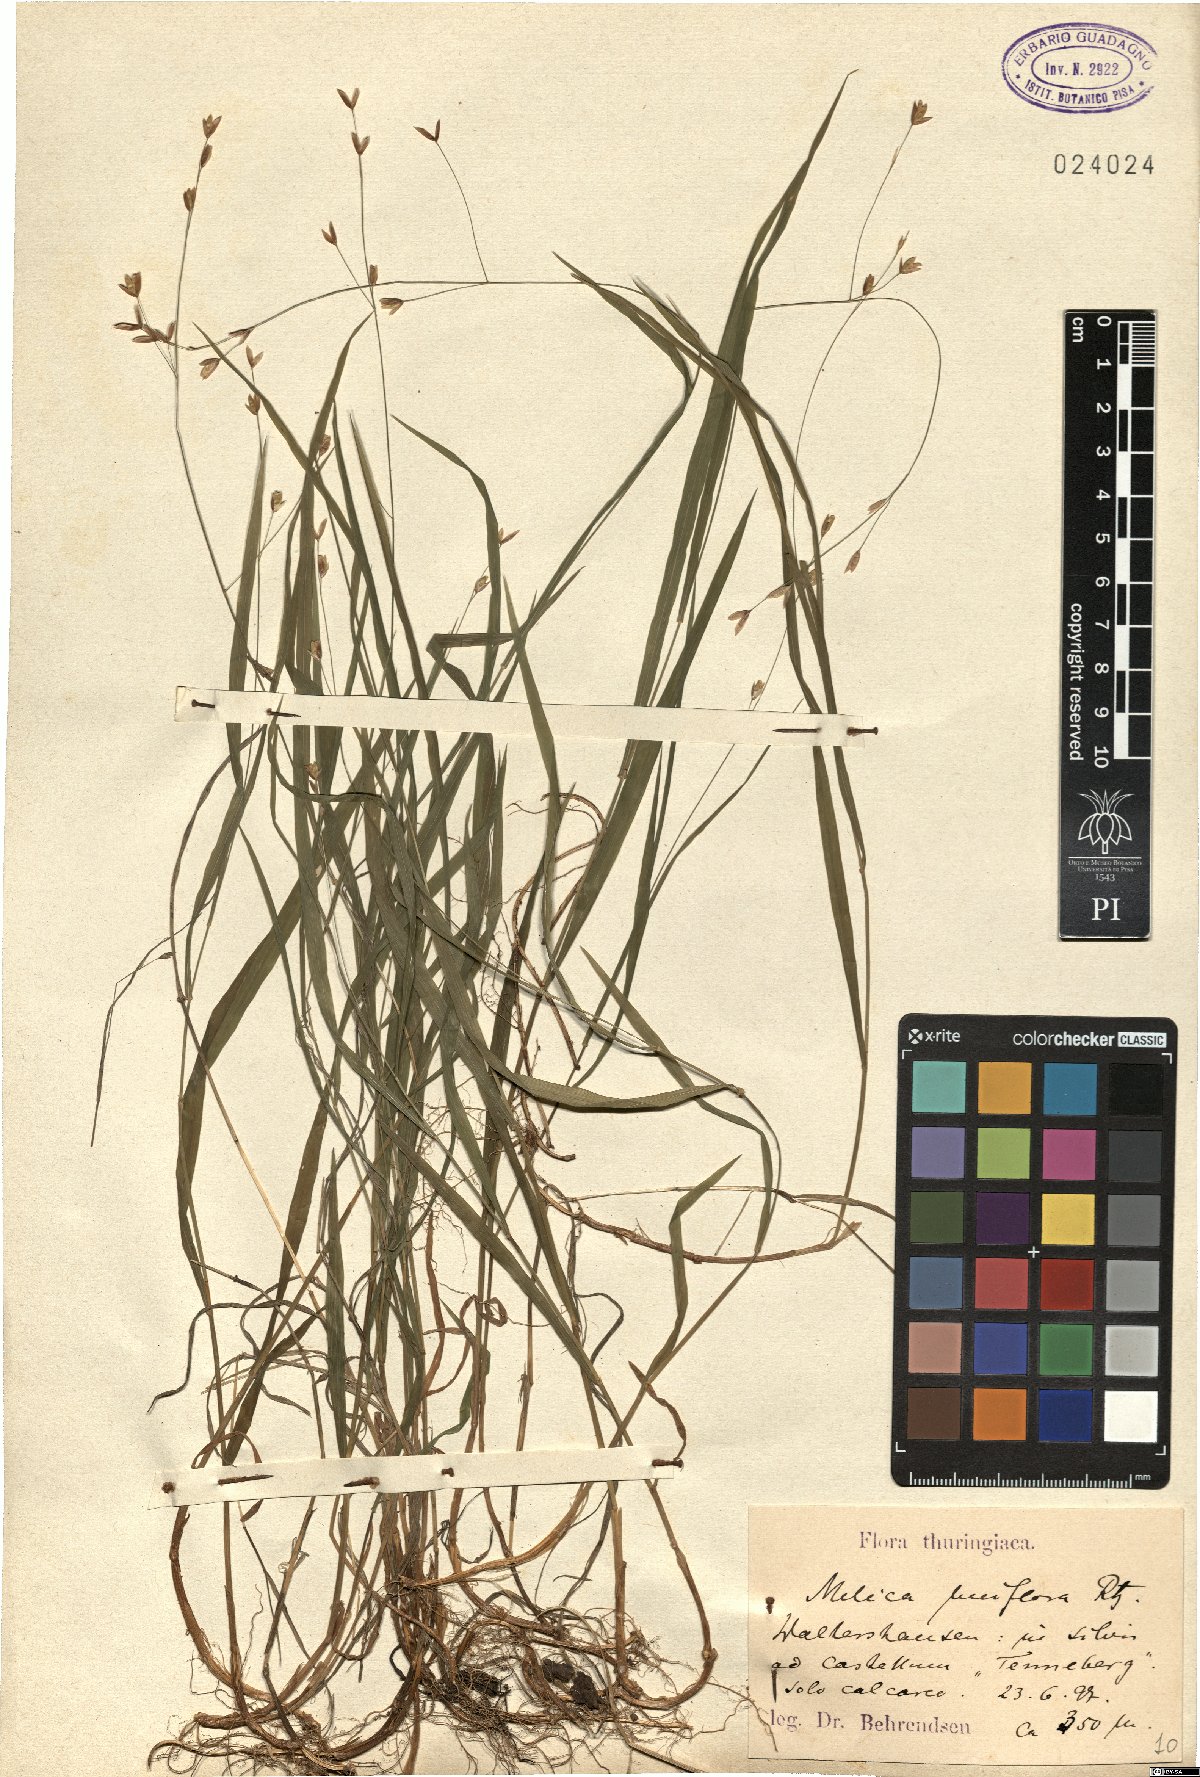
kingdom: Plantae
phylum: Tracheophyta
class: Liliopsida
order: Poales
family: Poaceae
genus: Melica
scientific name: Melica uniflora
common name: Wood melick
